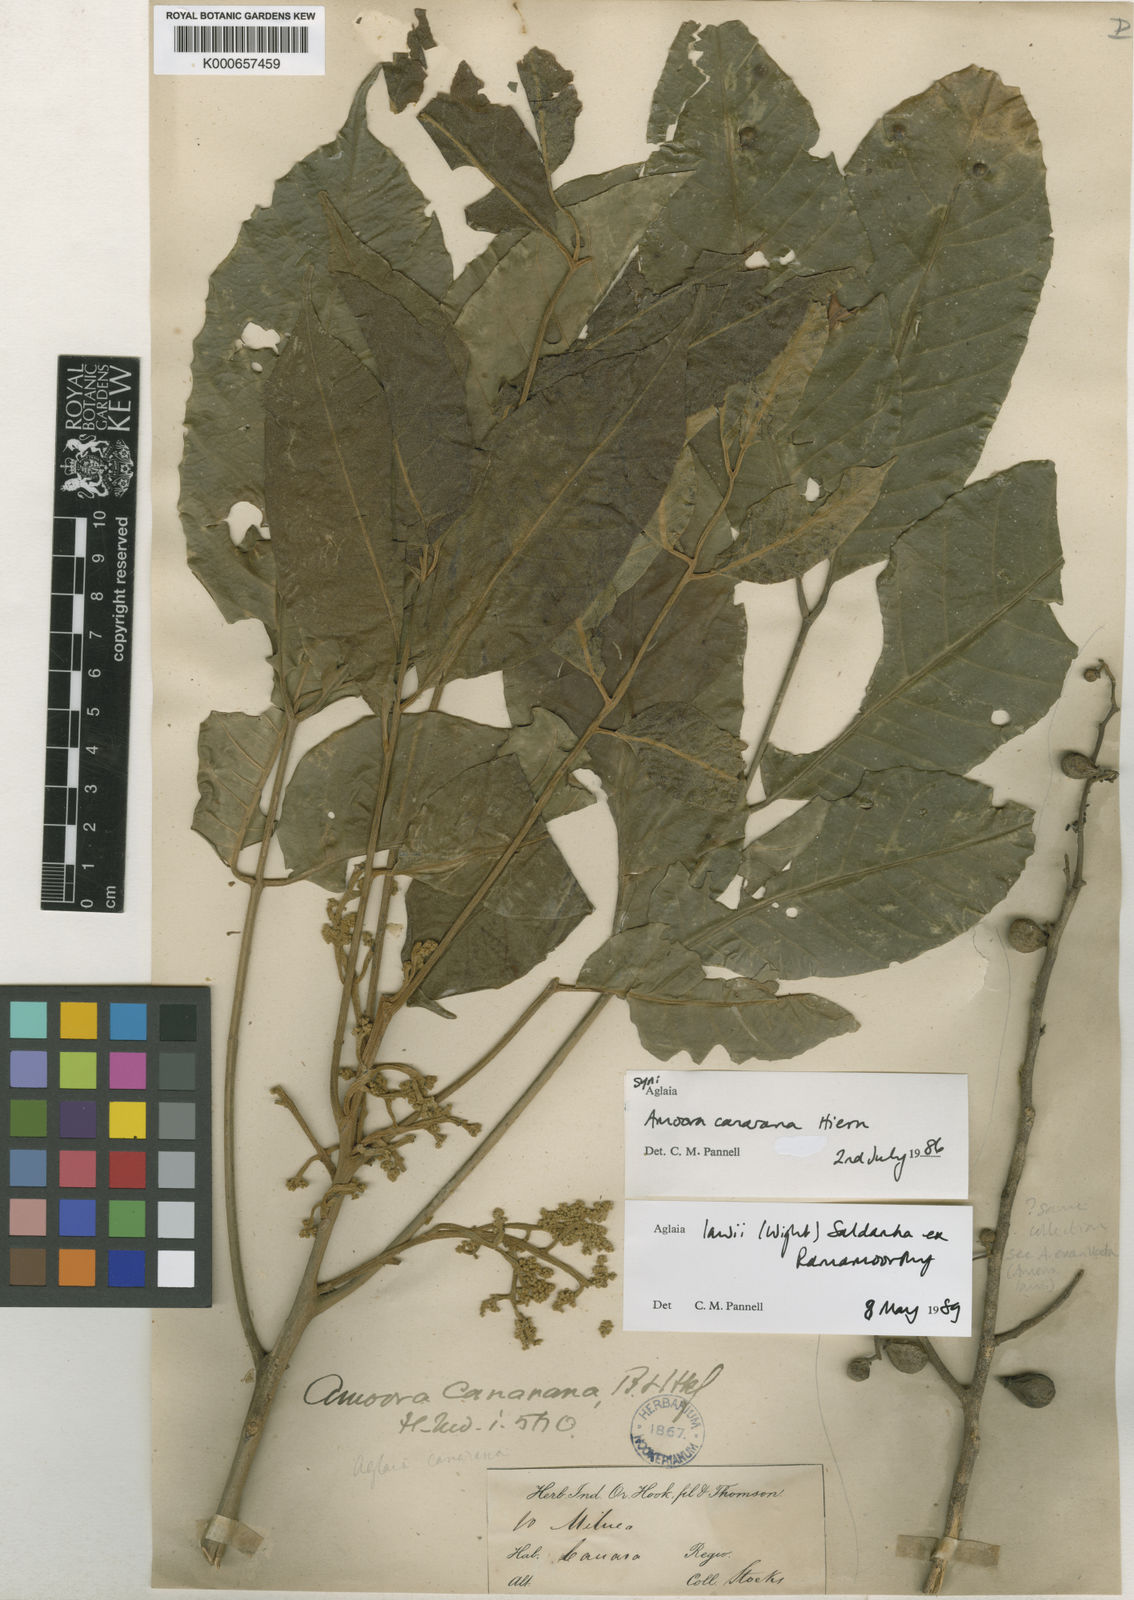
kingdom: Plantae
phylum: Tracheophyta
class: Magnoliopsida
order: Sapindales
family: Meliaceae
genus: Aglaia
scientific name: Aglaia
